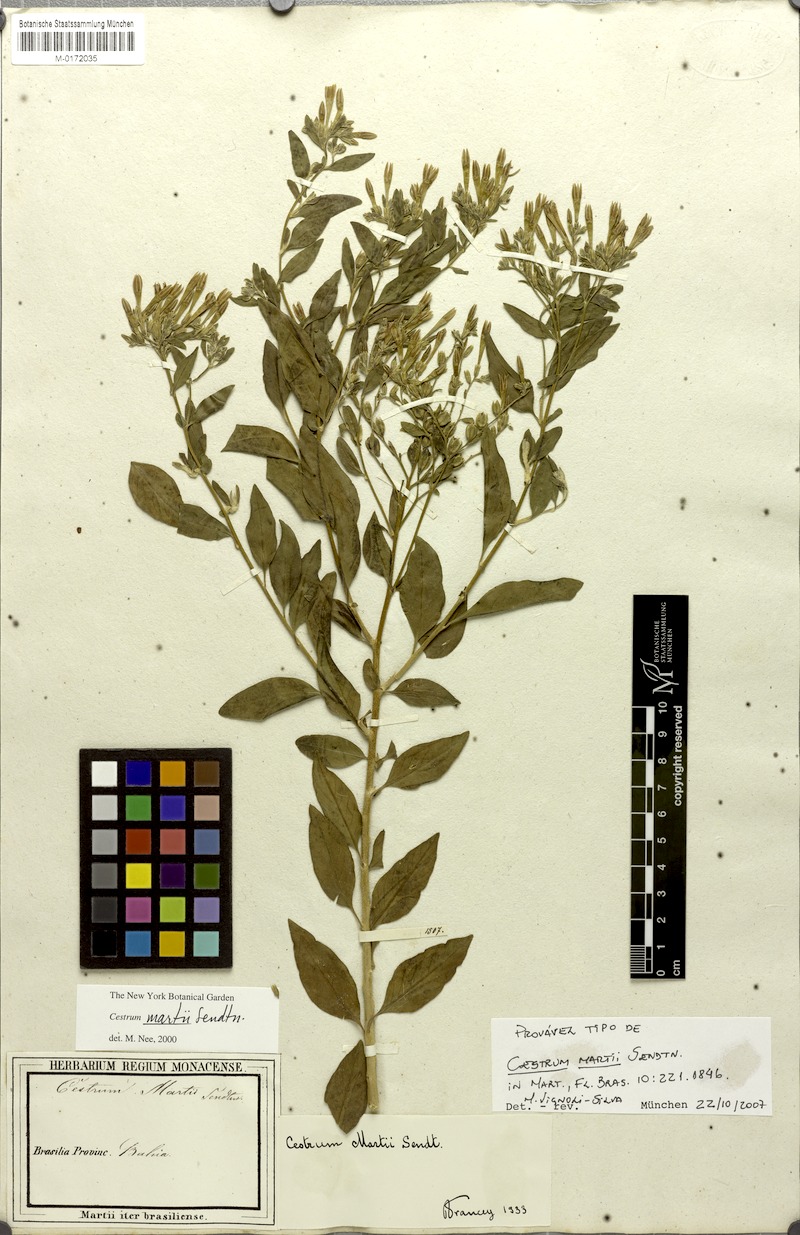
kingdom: Plantae
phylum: Tracheophyta
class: Magnoliopsida
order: Solanales
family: Solanaceae
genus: Cestrum
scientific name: Cestrum martii
